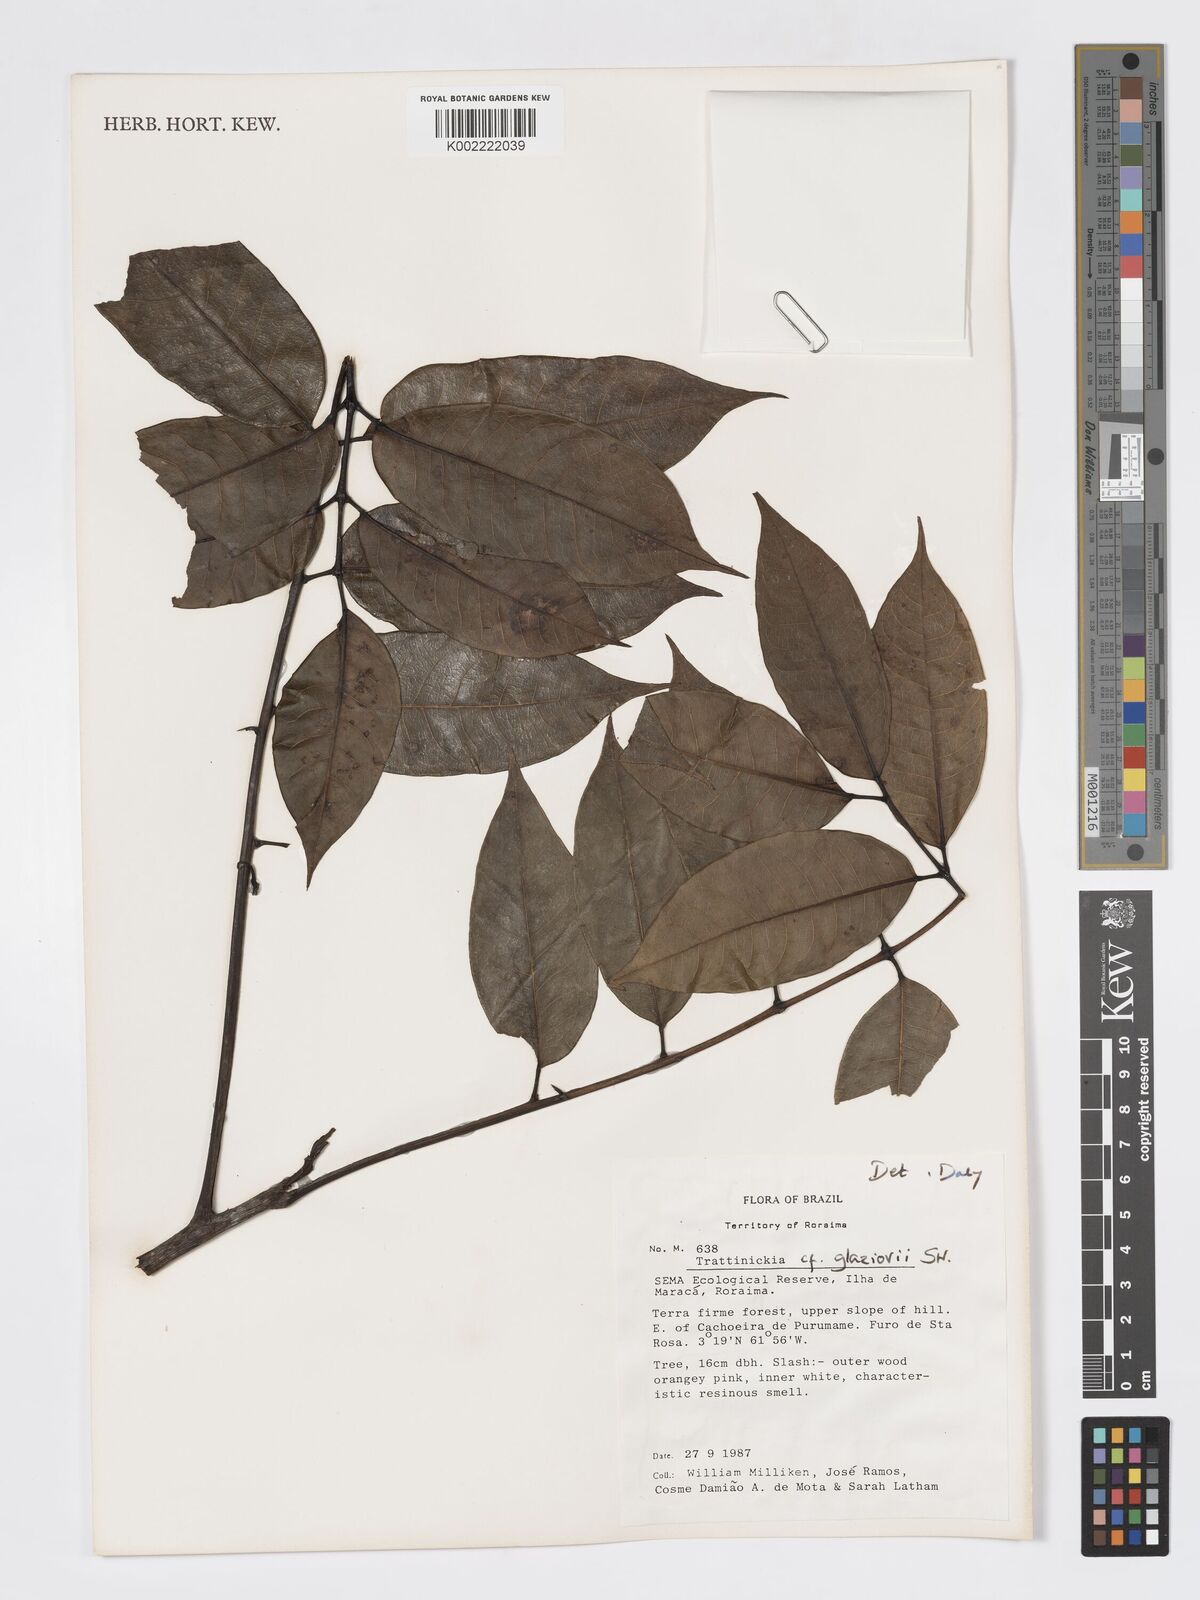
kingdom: Plantae
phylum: Tracheophyta
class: Magnoliopsida
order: Sapindales
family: Burseraceae
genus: Trattinnickia
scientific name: Trattinnickia glaziovii
